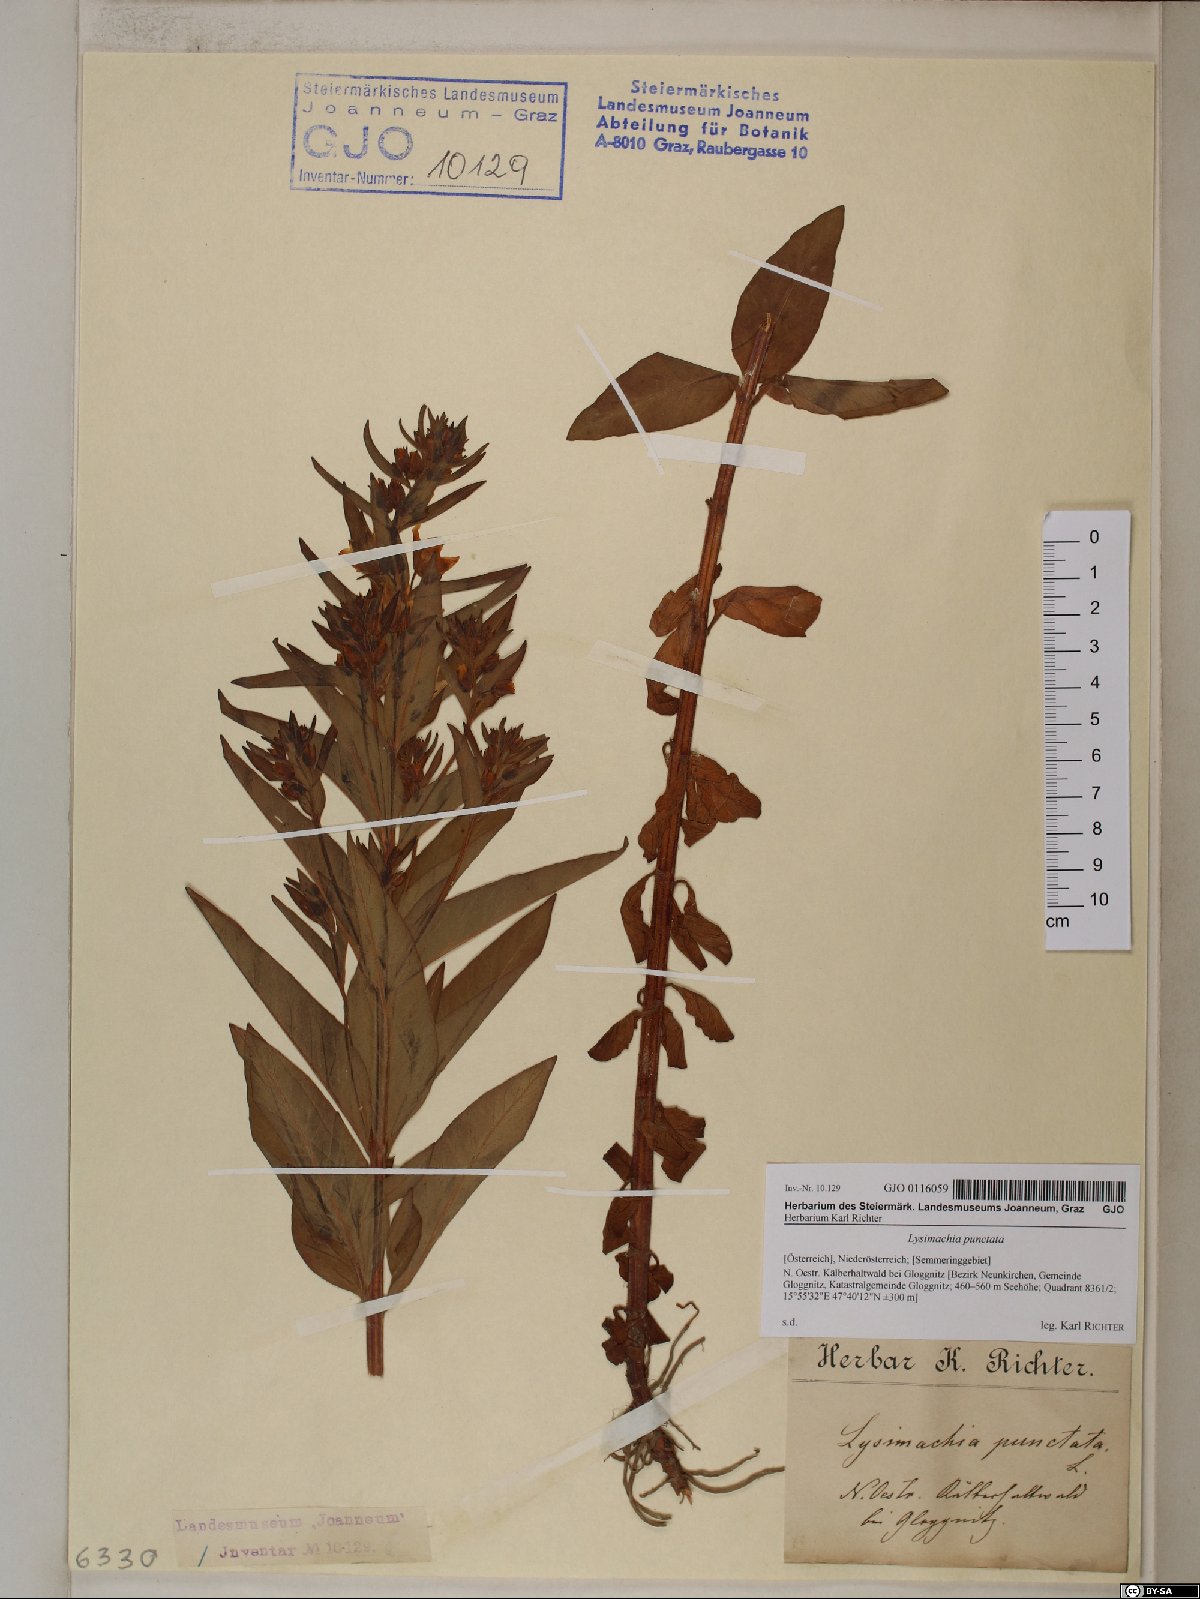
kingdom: Plantae
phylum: Tracheophyta
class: Magnoliopsida
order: Ericales
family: Primulaceae
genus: Lysimachia
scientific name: Lysimachia punctata
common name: Dotted loosestrife
